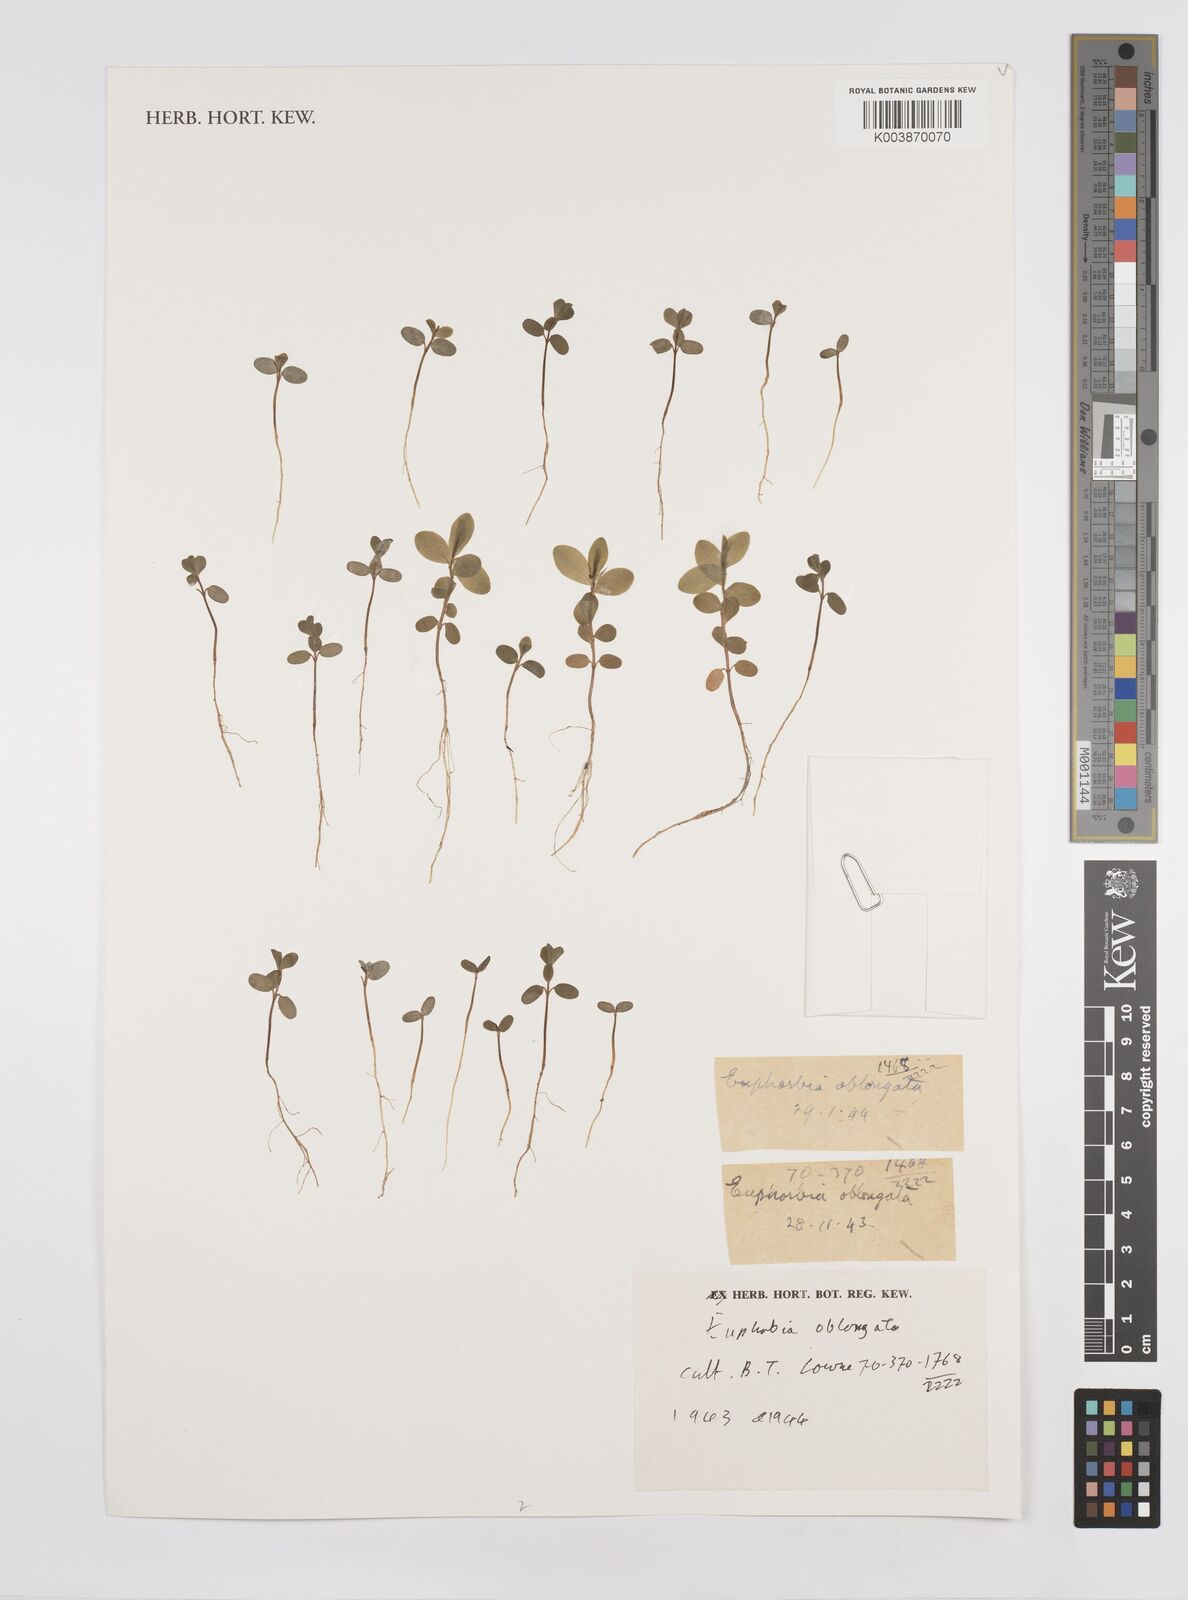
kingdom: Plantae
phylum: Tracheophyta
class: Magnoliopsida
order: Malpighiales
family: Euphorbiaceae
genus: Euphorbia
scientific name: Euphorbia oblongata
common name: Balkan spurge
